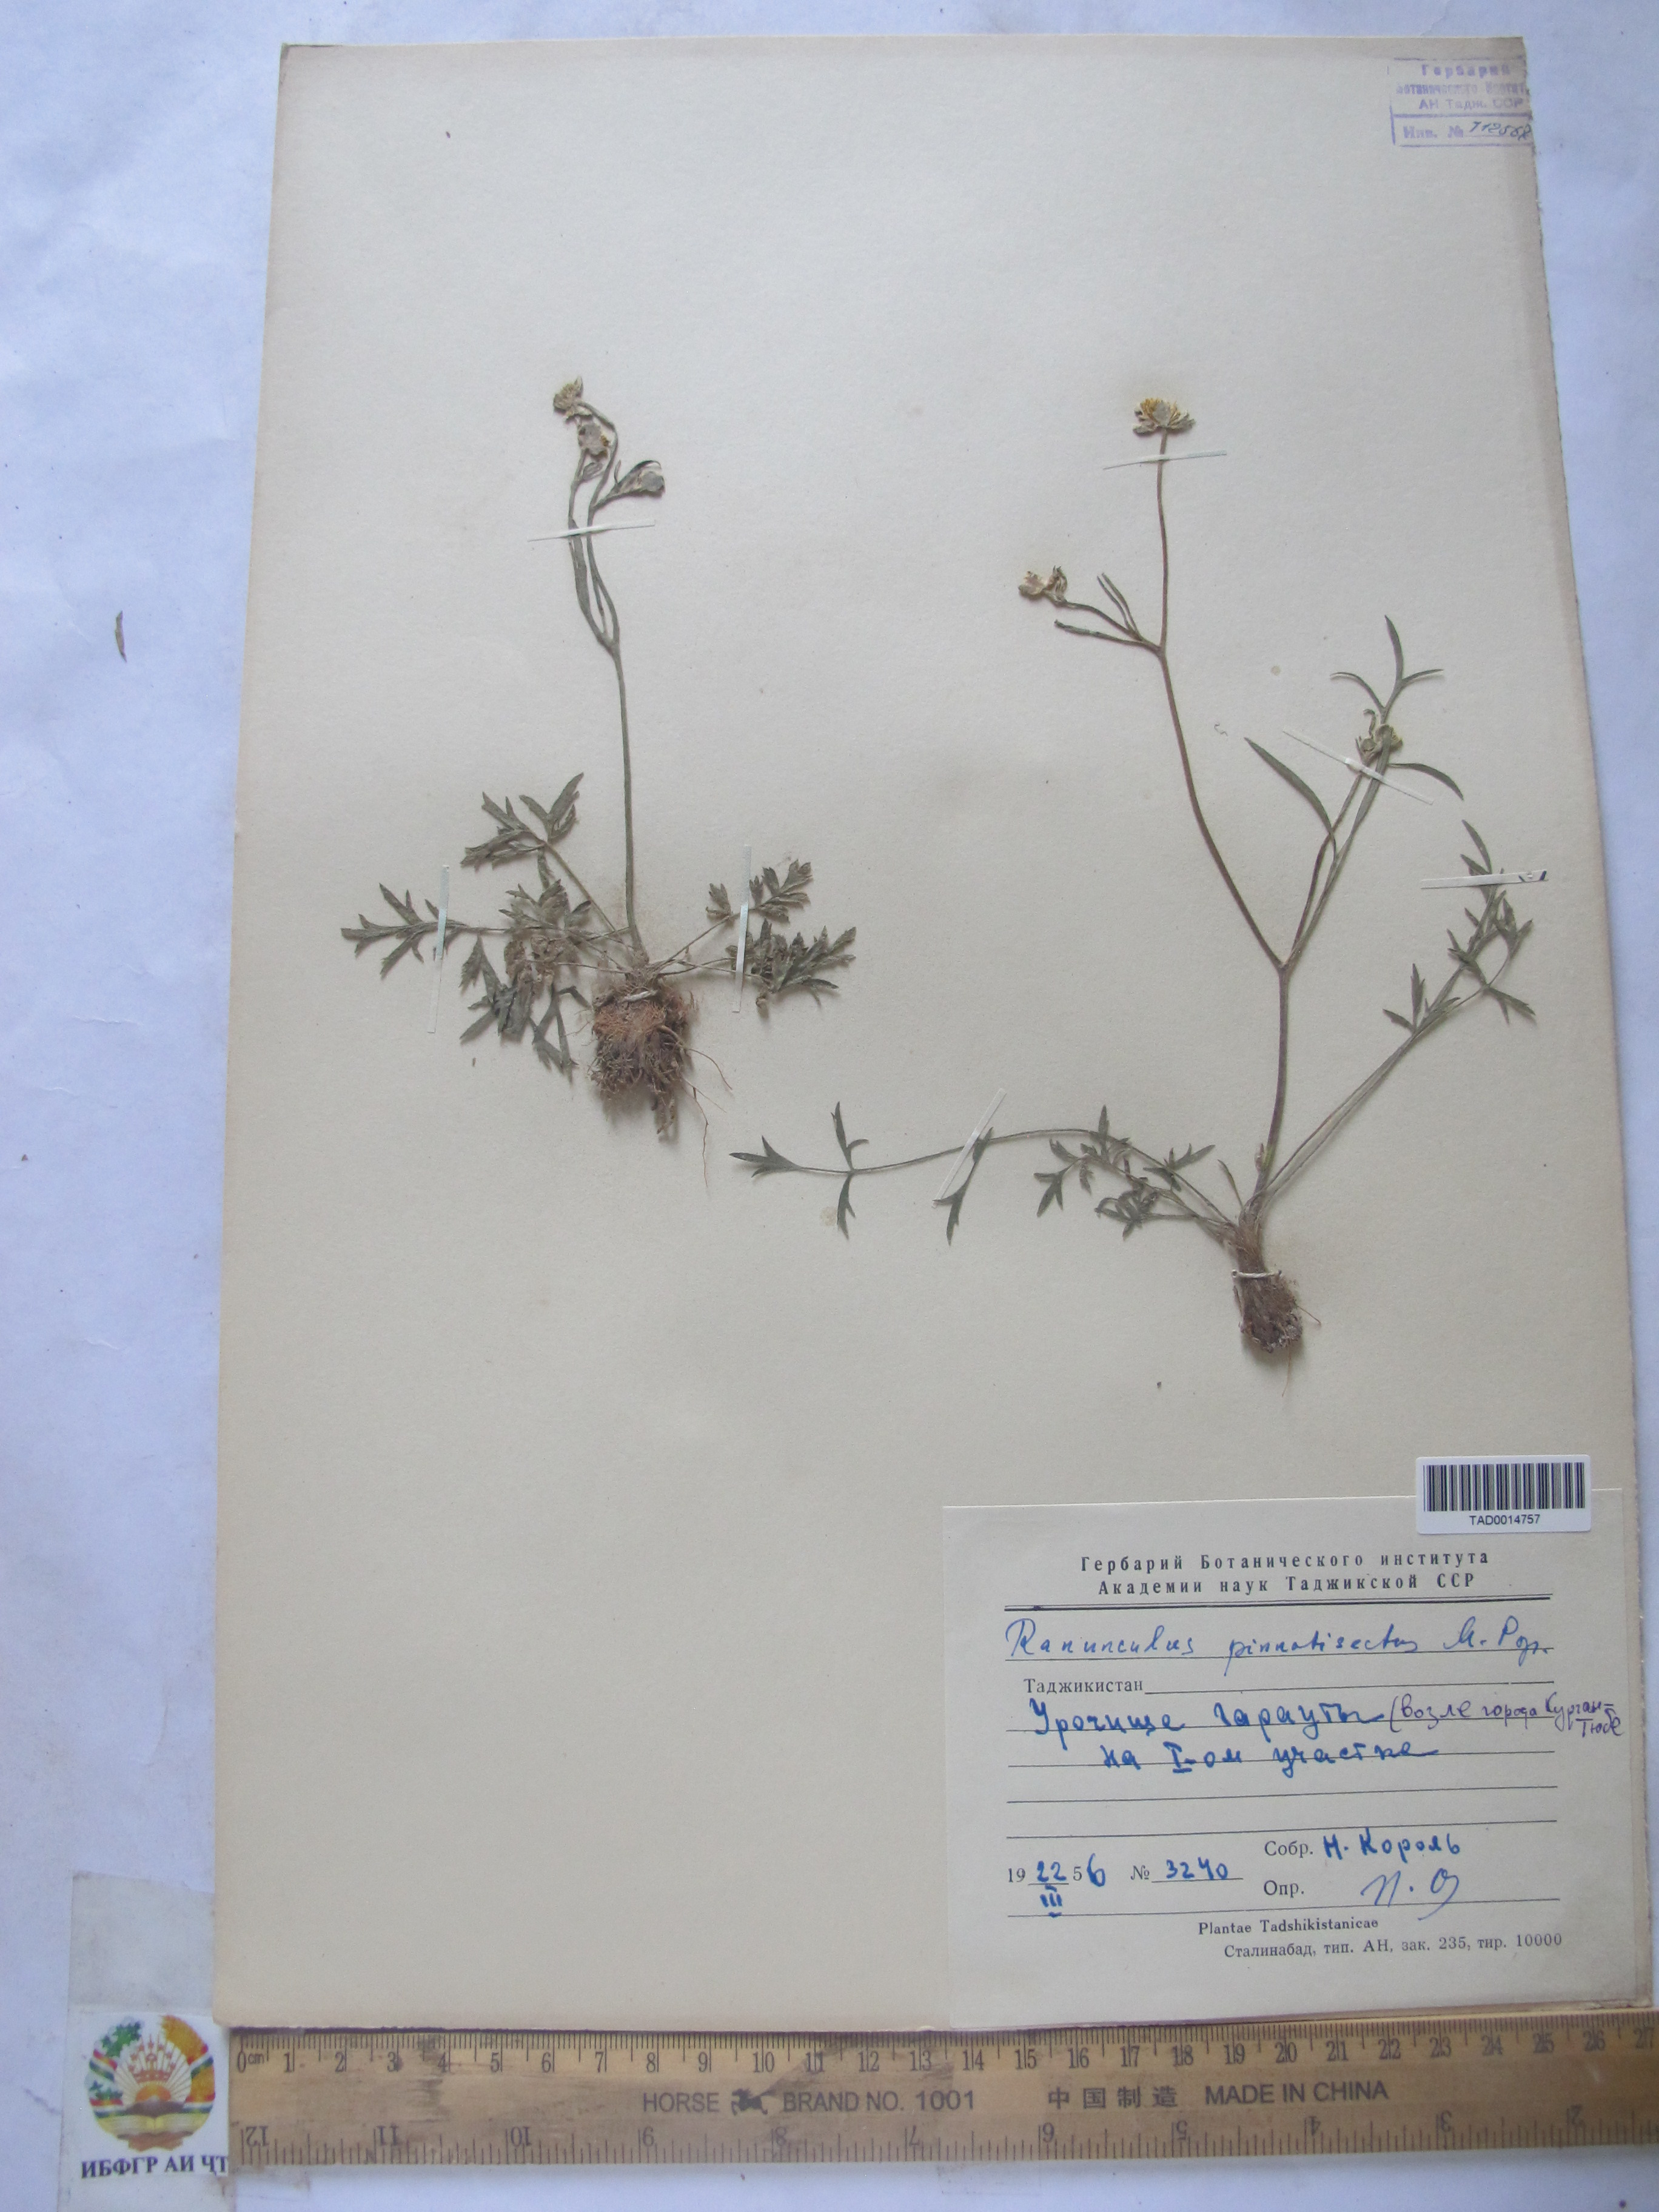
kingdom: Plantae
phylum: Tracheophyta
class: Magnoliopsida
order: Ranunculales
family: Ranunculaceae
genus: Ranunculus
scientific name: Ranunculus pinnatisectus
